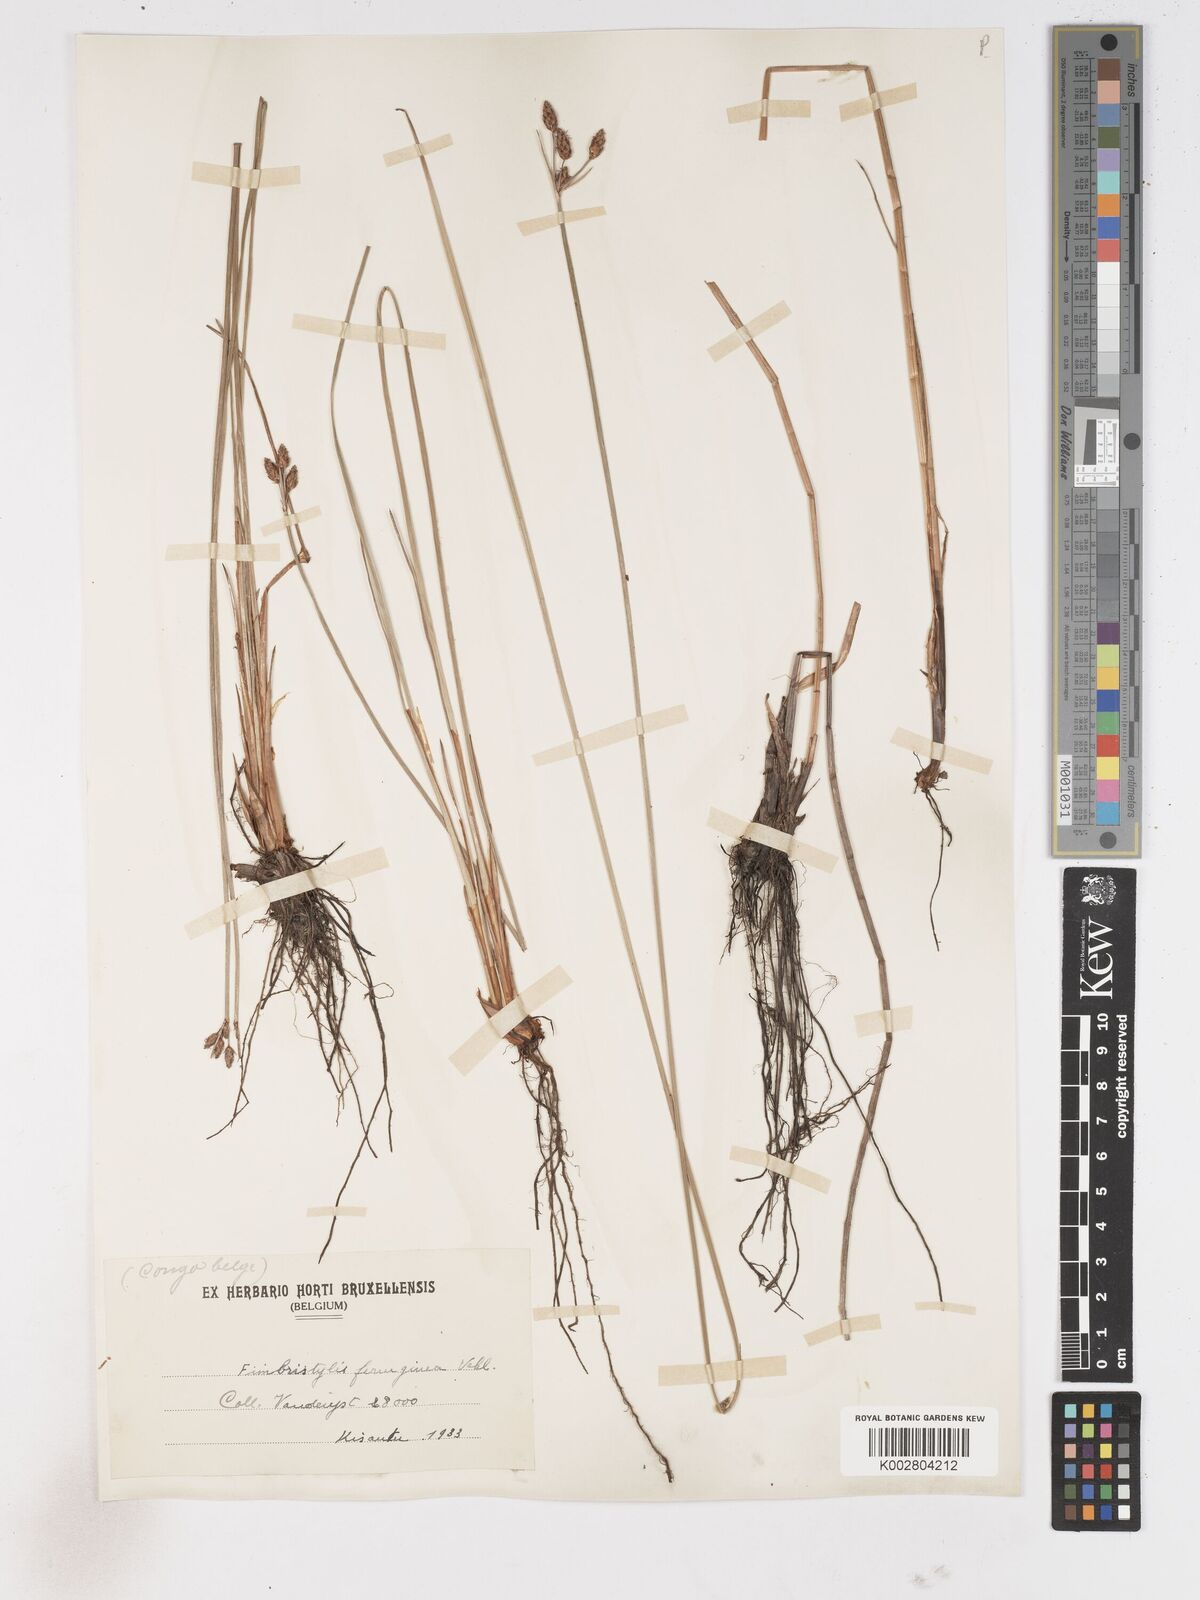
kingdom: Plantae
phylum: Tracheophyta
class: Liliopsida
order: Poales
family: Cyperaceae
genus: Fimbristylis
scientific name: Fimbristylis ferruginea
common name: West indian fimbry
